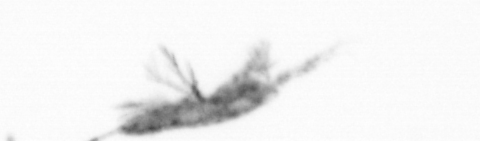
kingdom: Animalia
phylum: Arthropoda
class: Copepoda
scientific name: Copepoda
